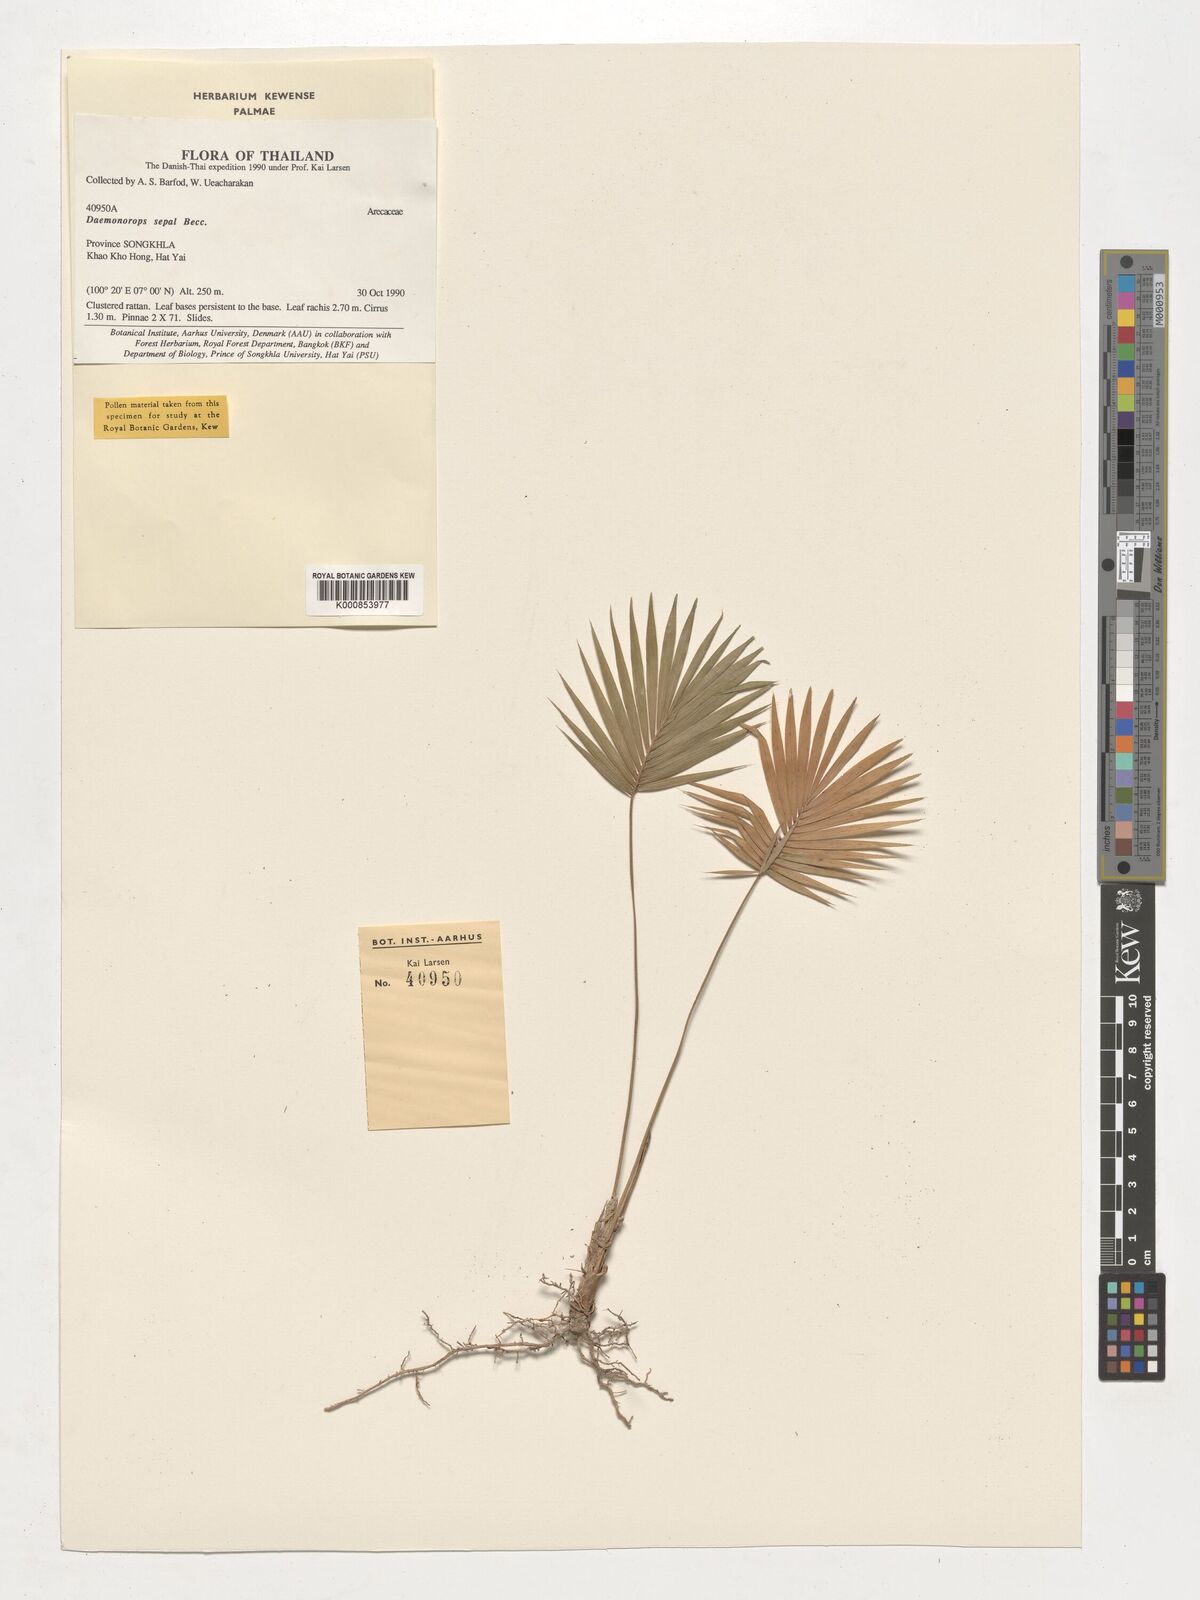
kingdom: Plantae
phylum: Tracheophyta
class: Liliopsida
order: Arecales
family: Arecaceae
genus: Calamus
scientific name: Calamus melanochaetes
